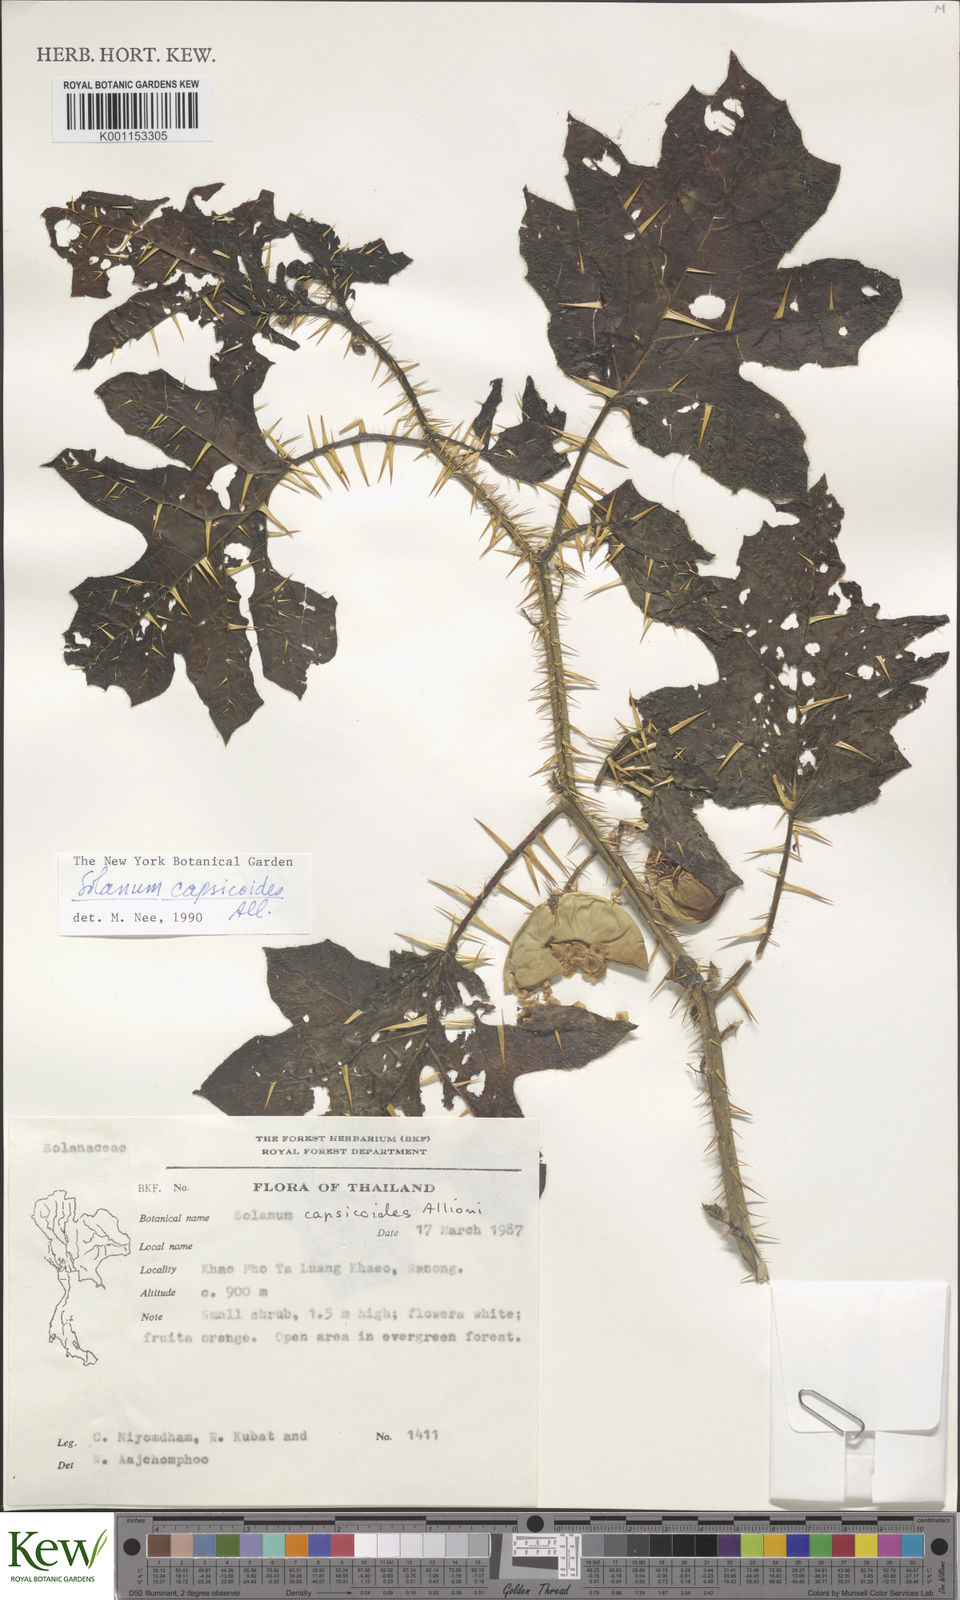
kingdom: Plantae
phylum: Tracheophyta
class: Magnoliopsida
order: Solanales
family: Solanaceae
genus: Solanum
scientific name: Solanum capsicoides
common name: Cockroach berry
